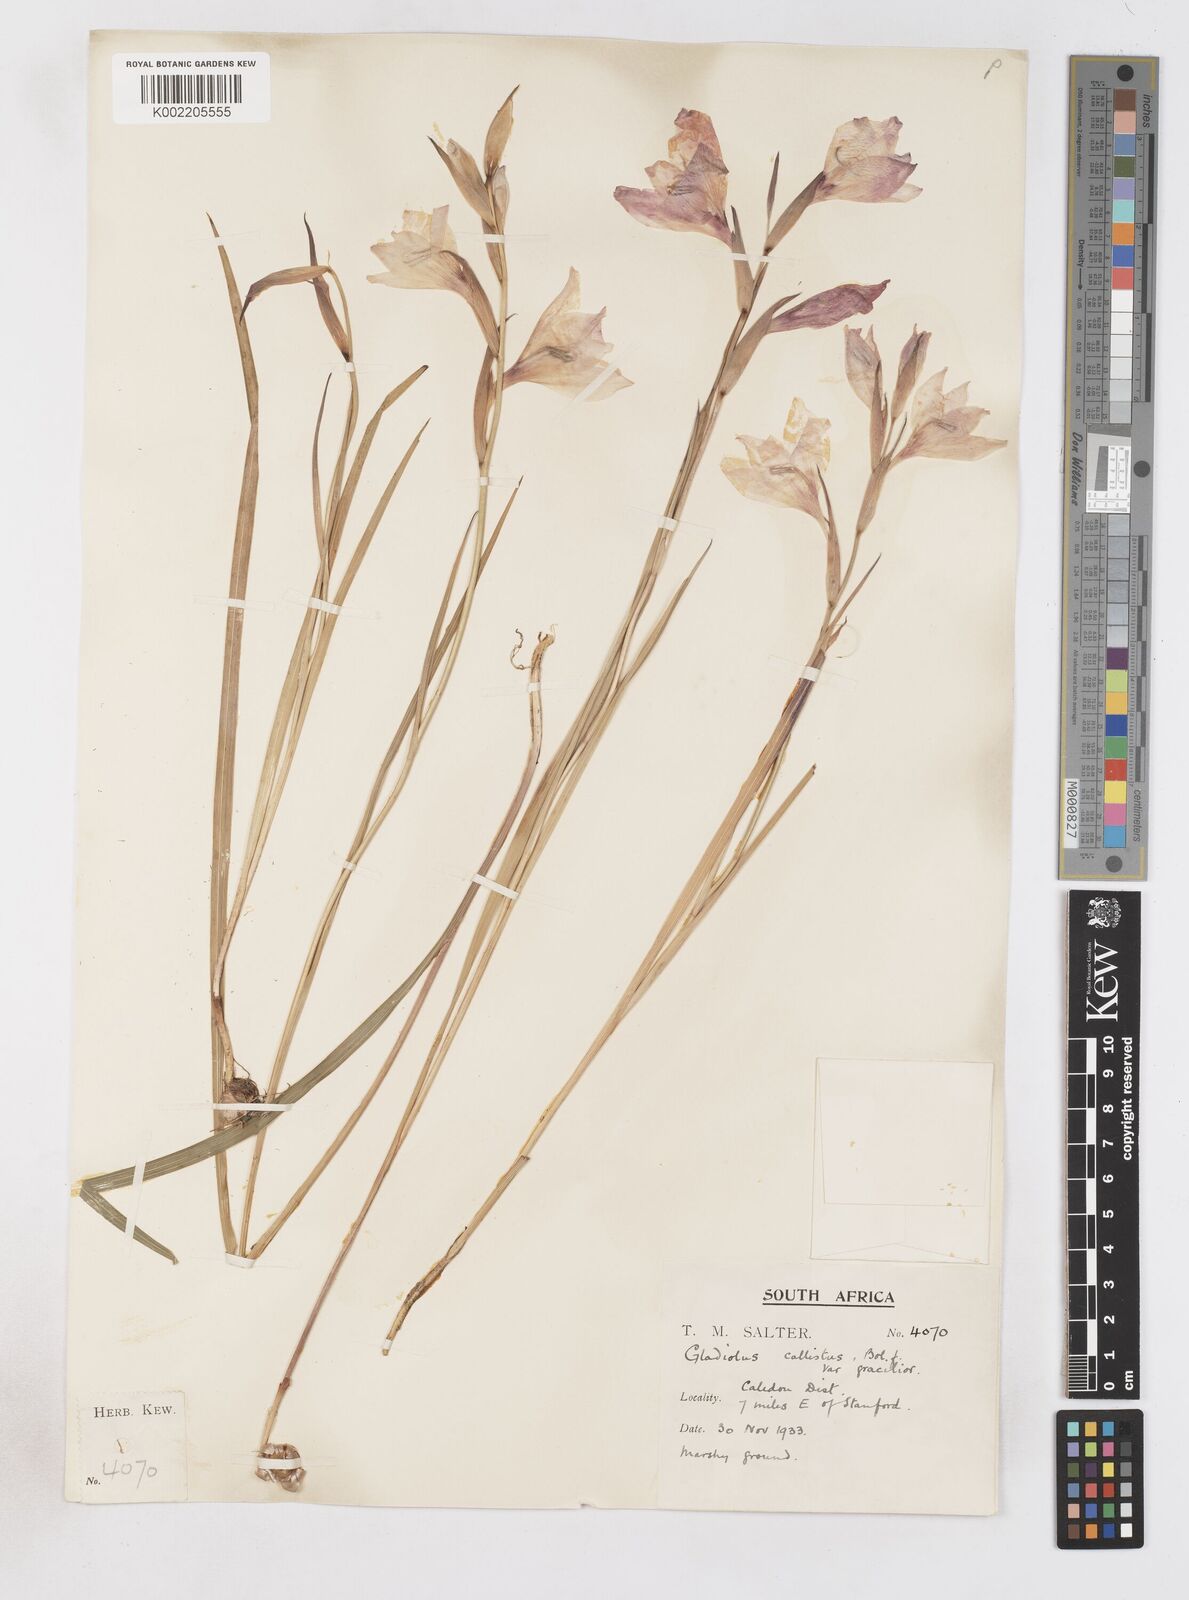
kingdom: Plantae
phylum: Tracheophyta
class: Liliopsida
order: Asparagales
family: Iridaceae
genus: Gladiolus
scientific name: Gladiolus carneus
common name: Painted-lady
